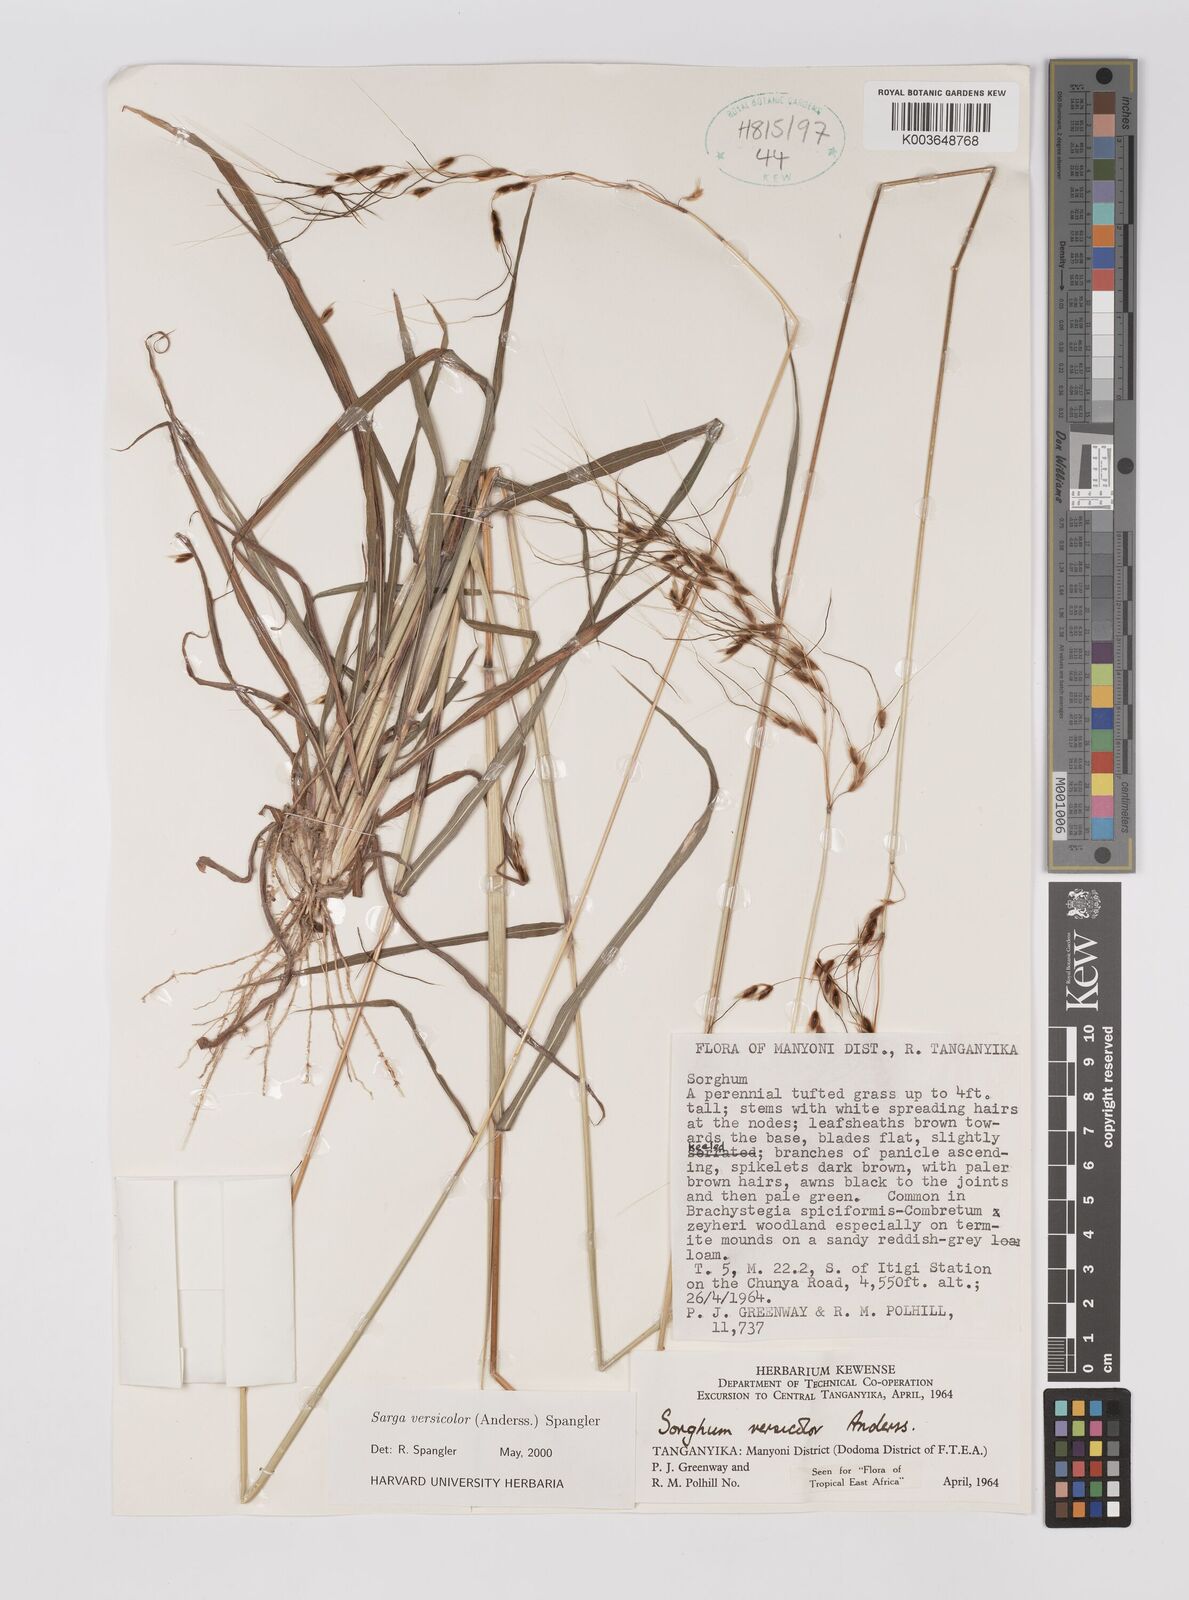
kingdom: Plantae
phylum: Tracheophyta
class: Liliopsida
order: Poales
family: Poaceae
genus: Sarga
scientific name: Sarga versicolor
